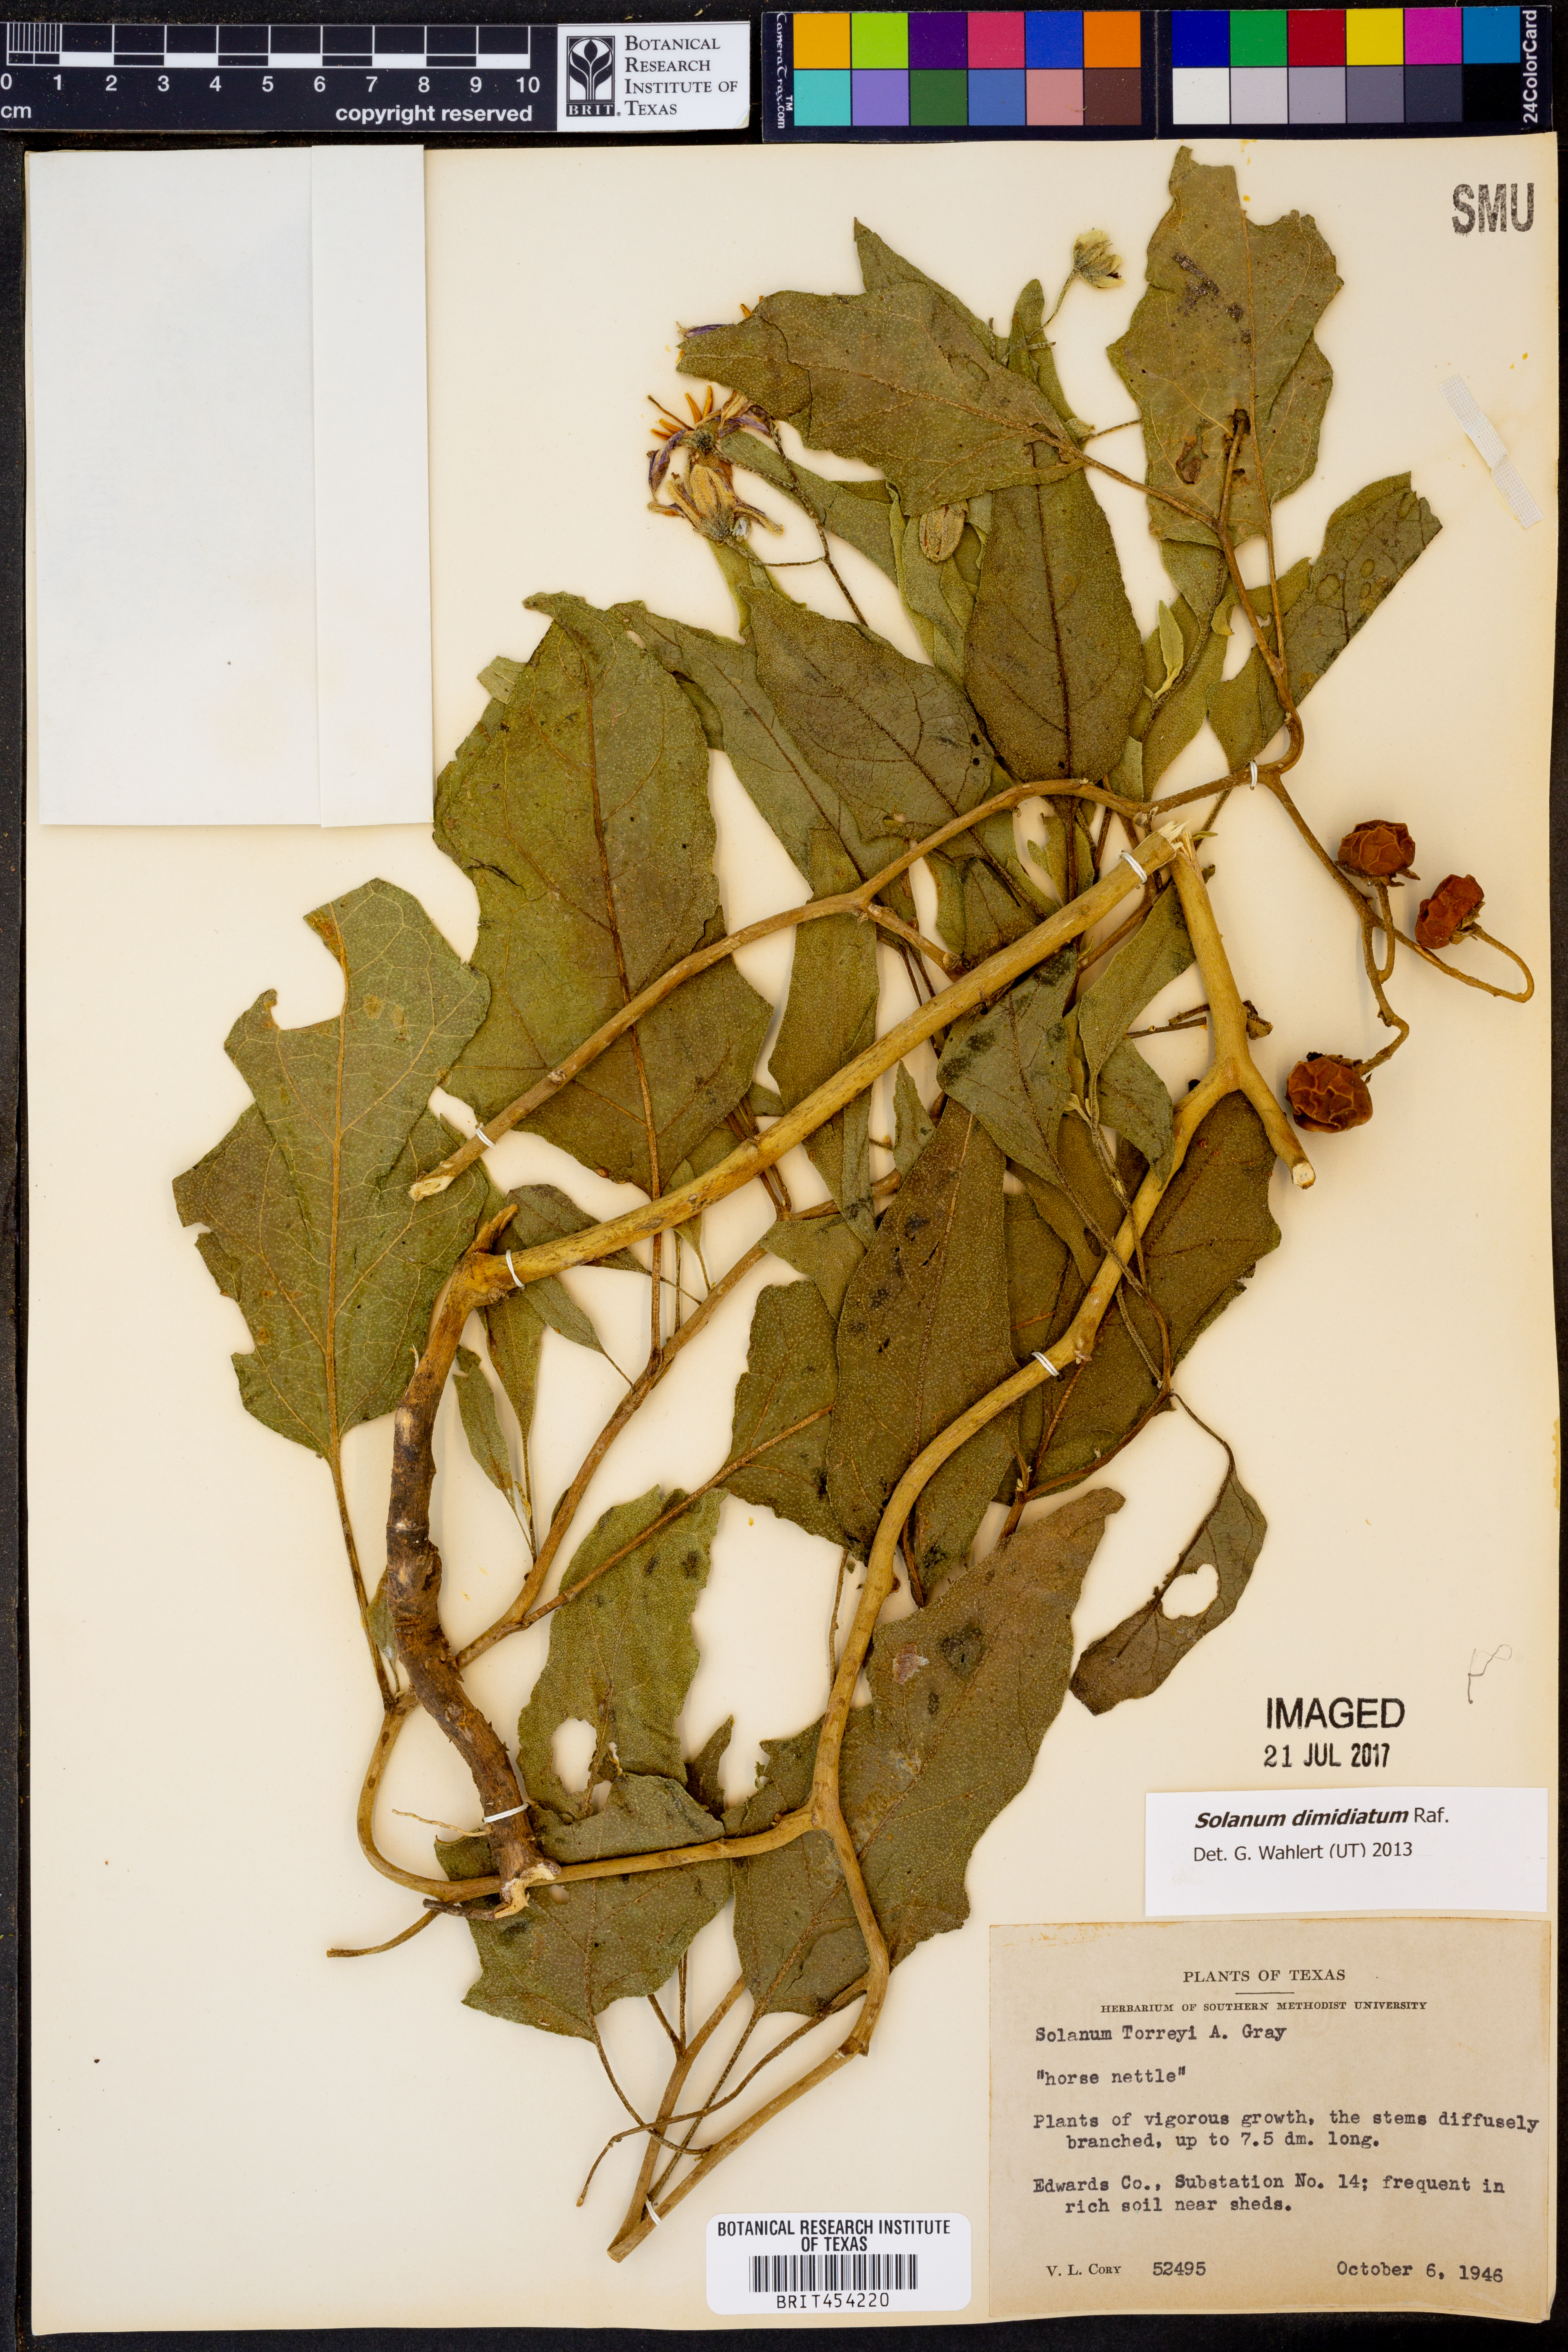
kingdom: Plantae
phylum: Tracheophyta
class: Magnoliopsida
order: Solanales
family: Solanaceae
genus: Solanum
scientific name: Solanum dimidiatum
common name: Carolina horse-nettle
